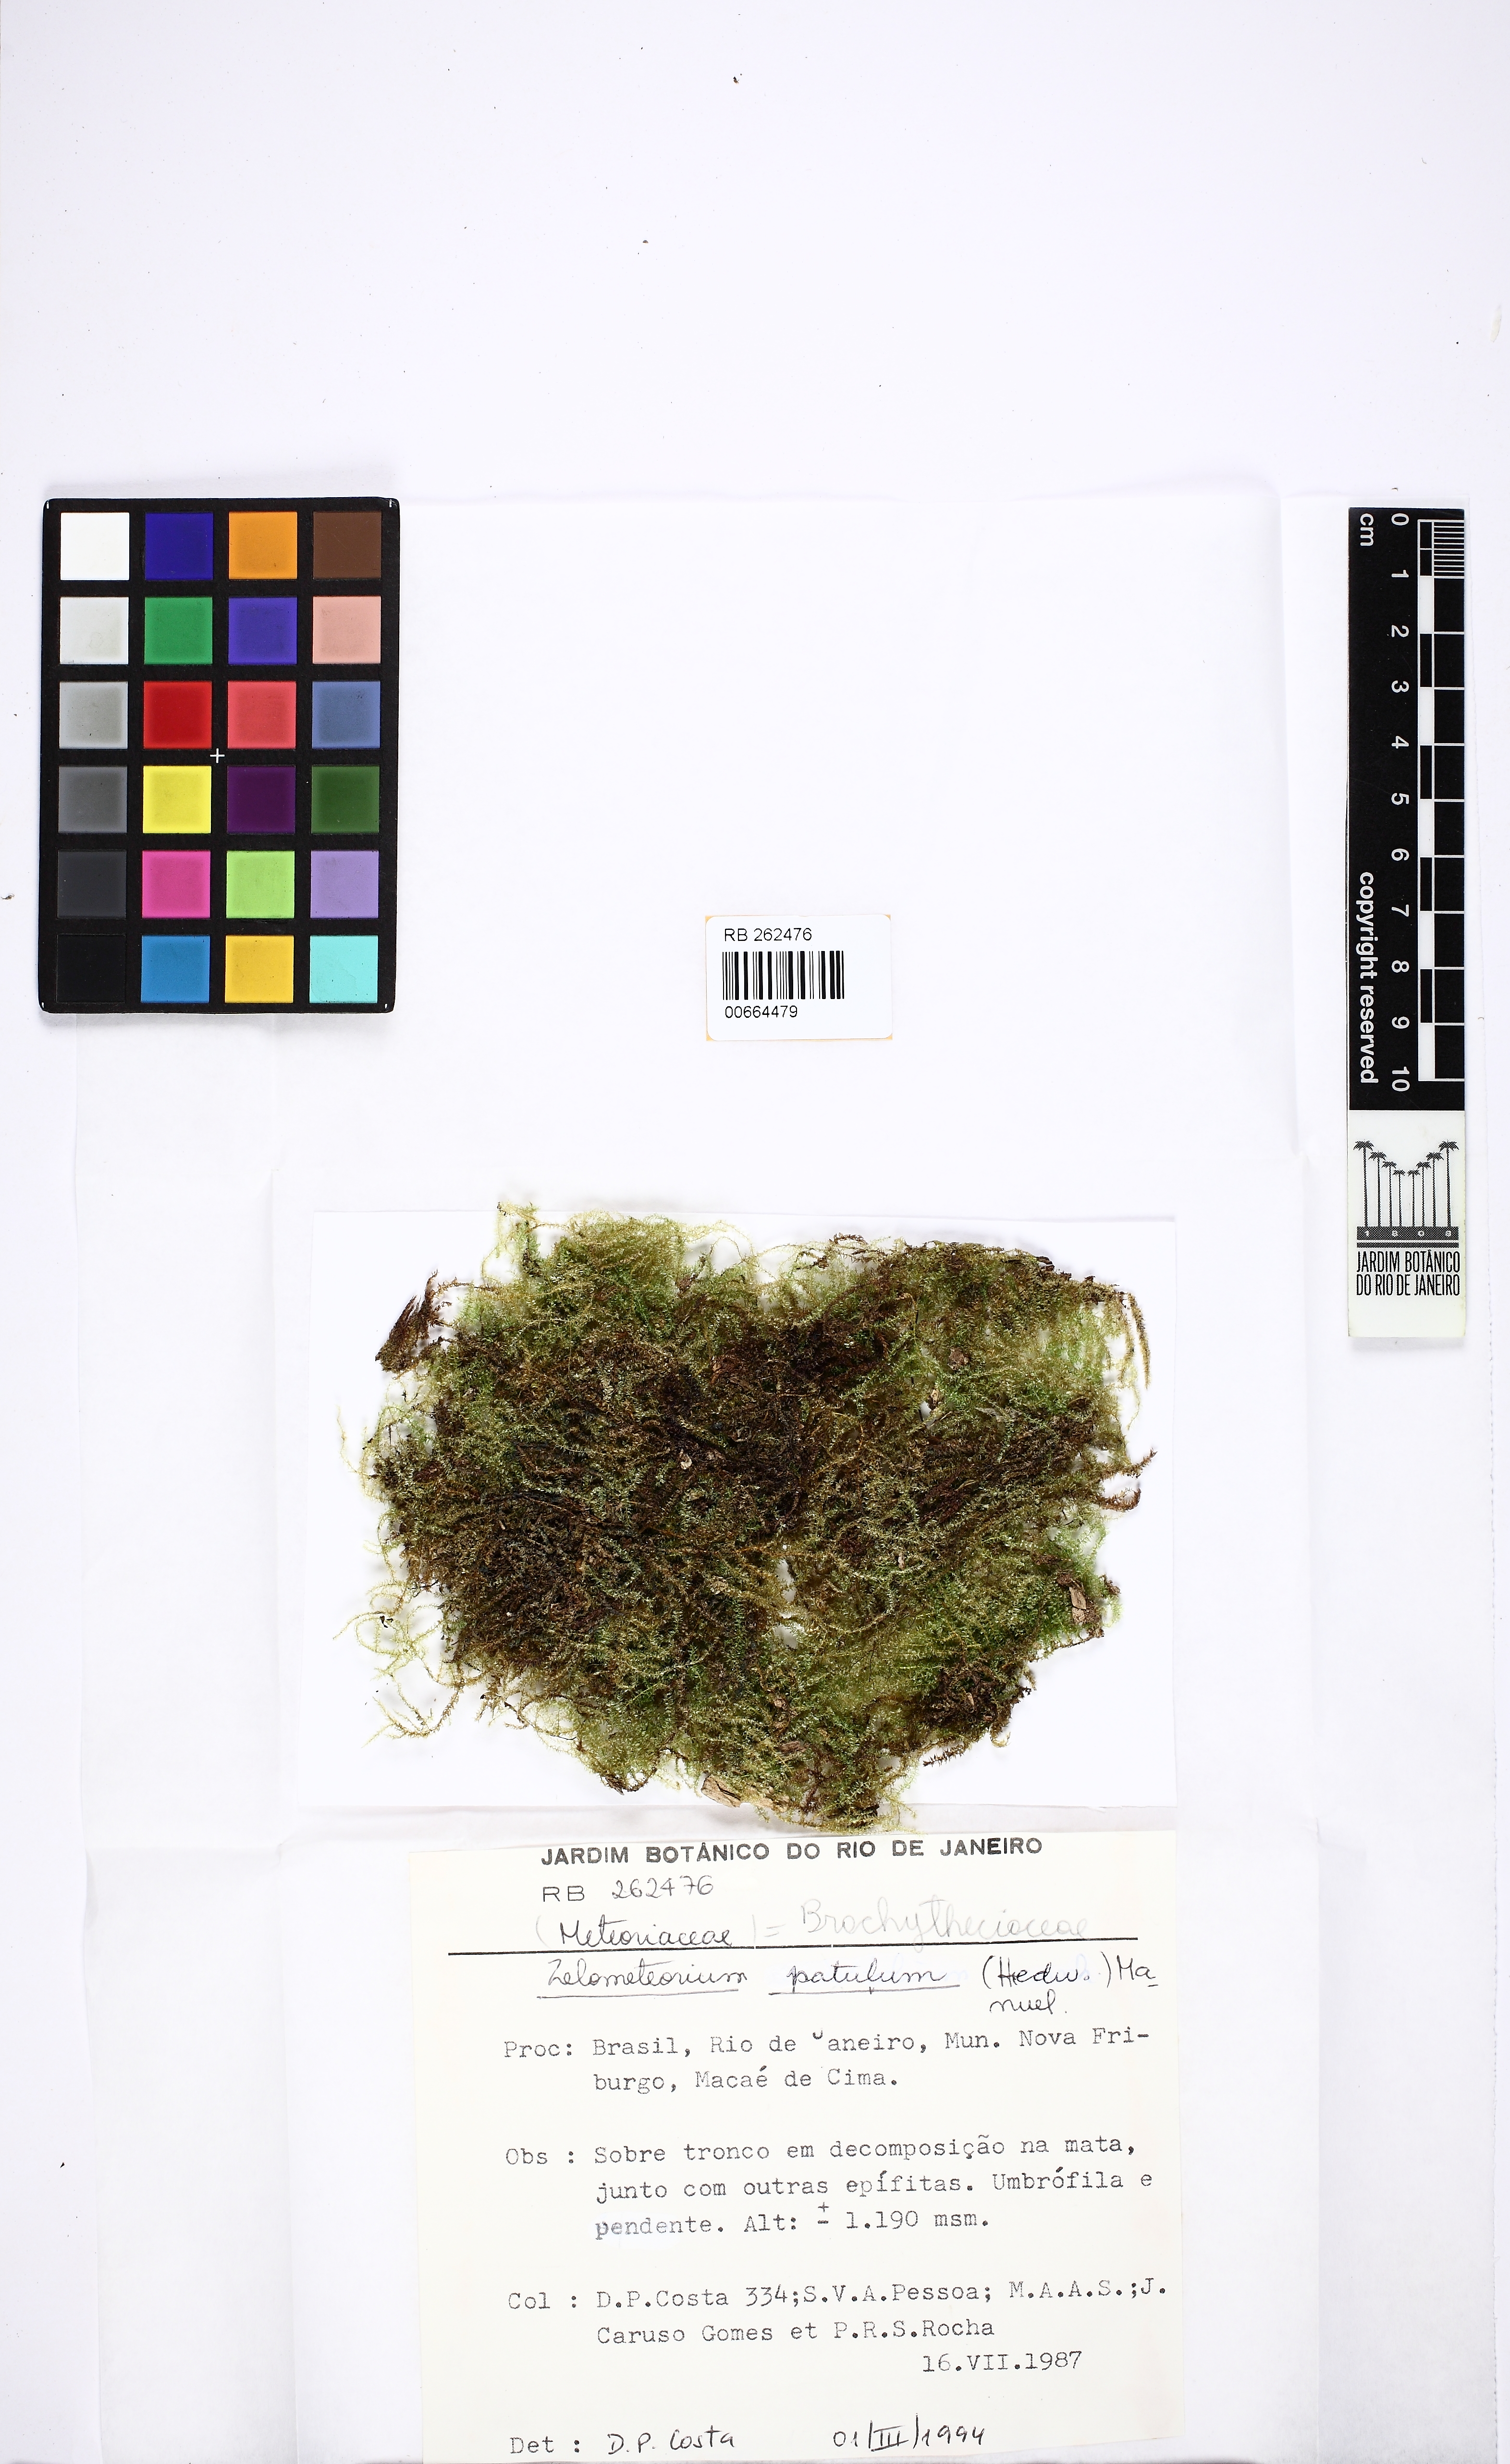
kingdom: Plantae
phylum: Bryophyta
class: Bryopsida
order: Hypnales
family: Brachytheciaceae
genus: Zelometeorium
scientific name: Zelometeorium patulum
